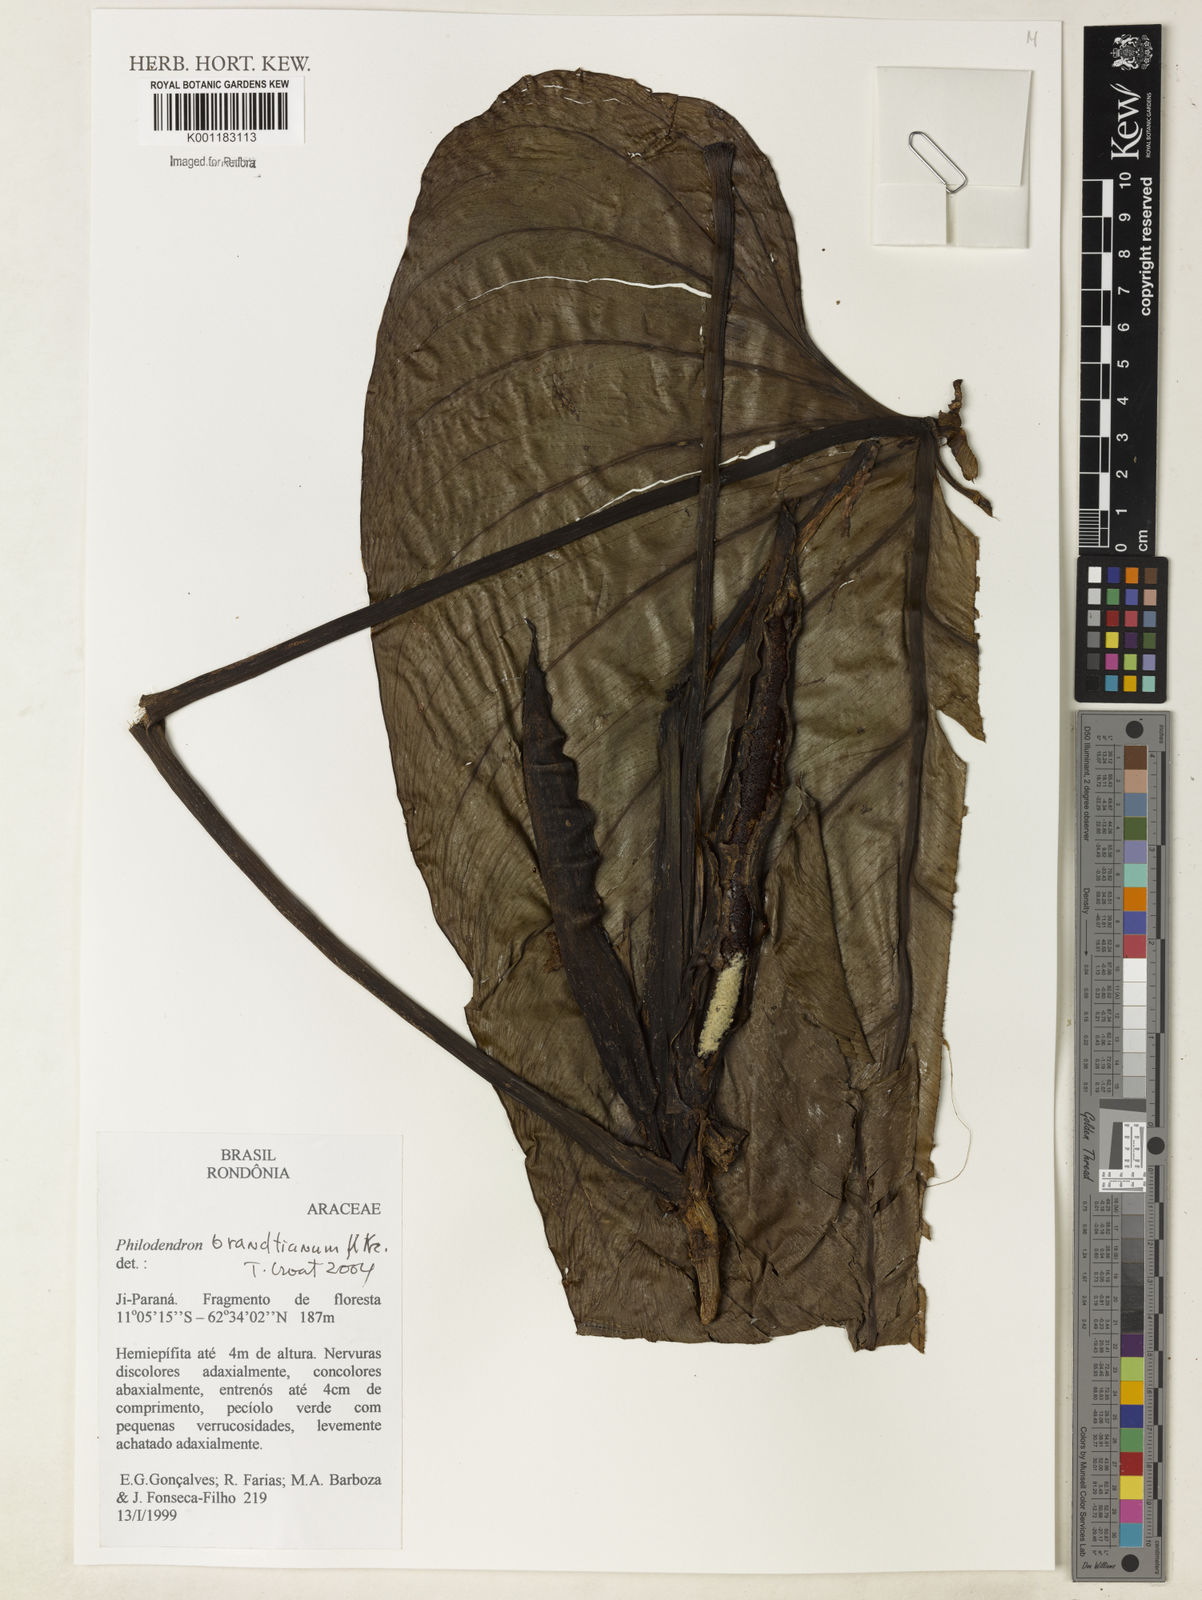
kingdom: Plantae
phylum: Tracheophyta
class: Liliopsida
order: Alismatales
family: Araceae
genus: Philodendron
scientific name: Philodendron brandtianum
